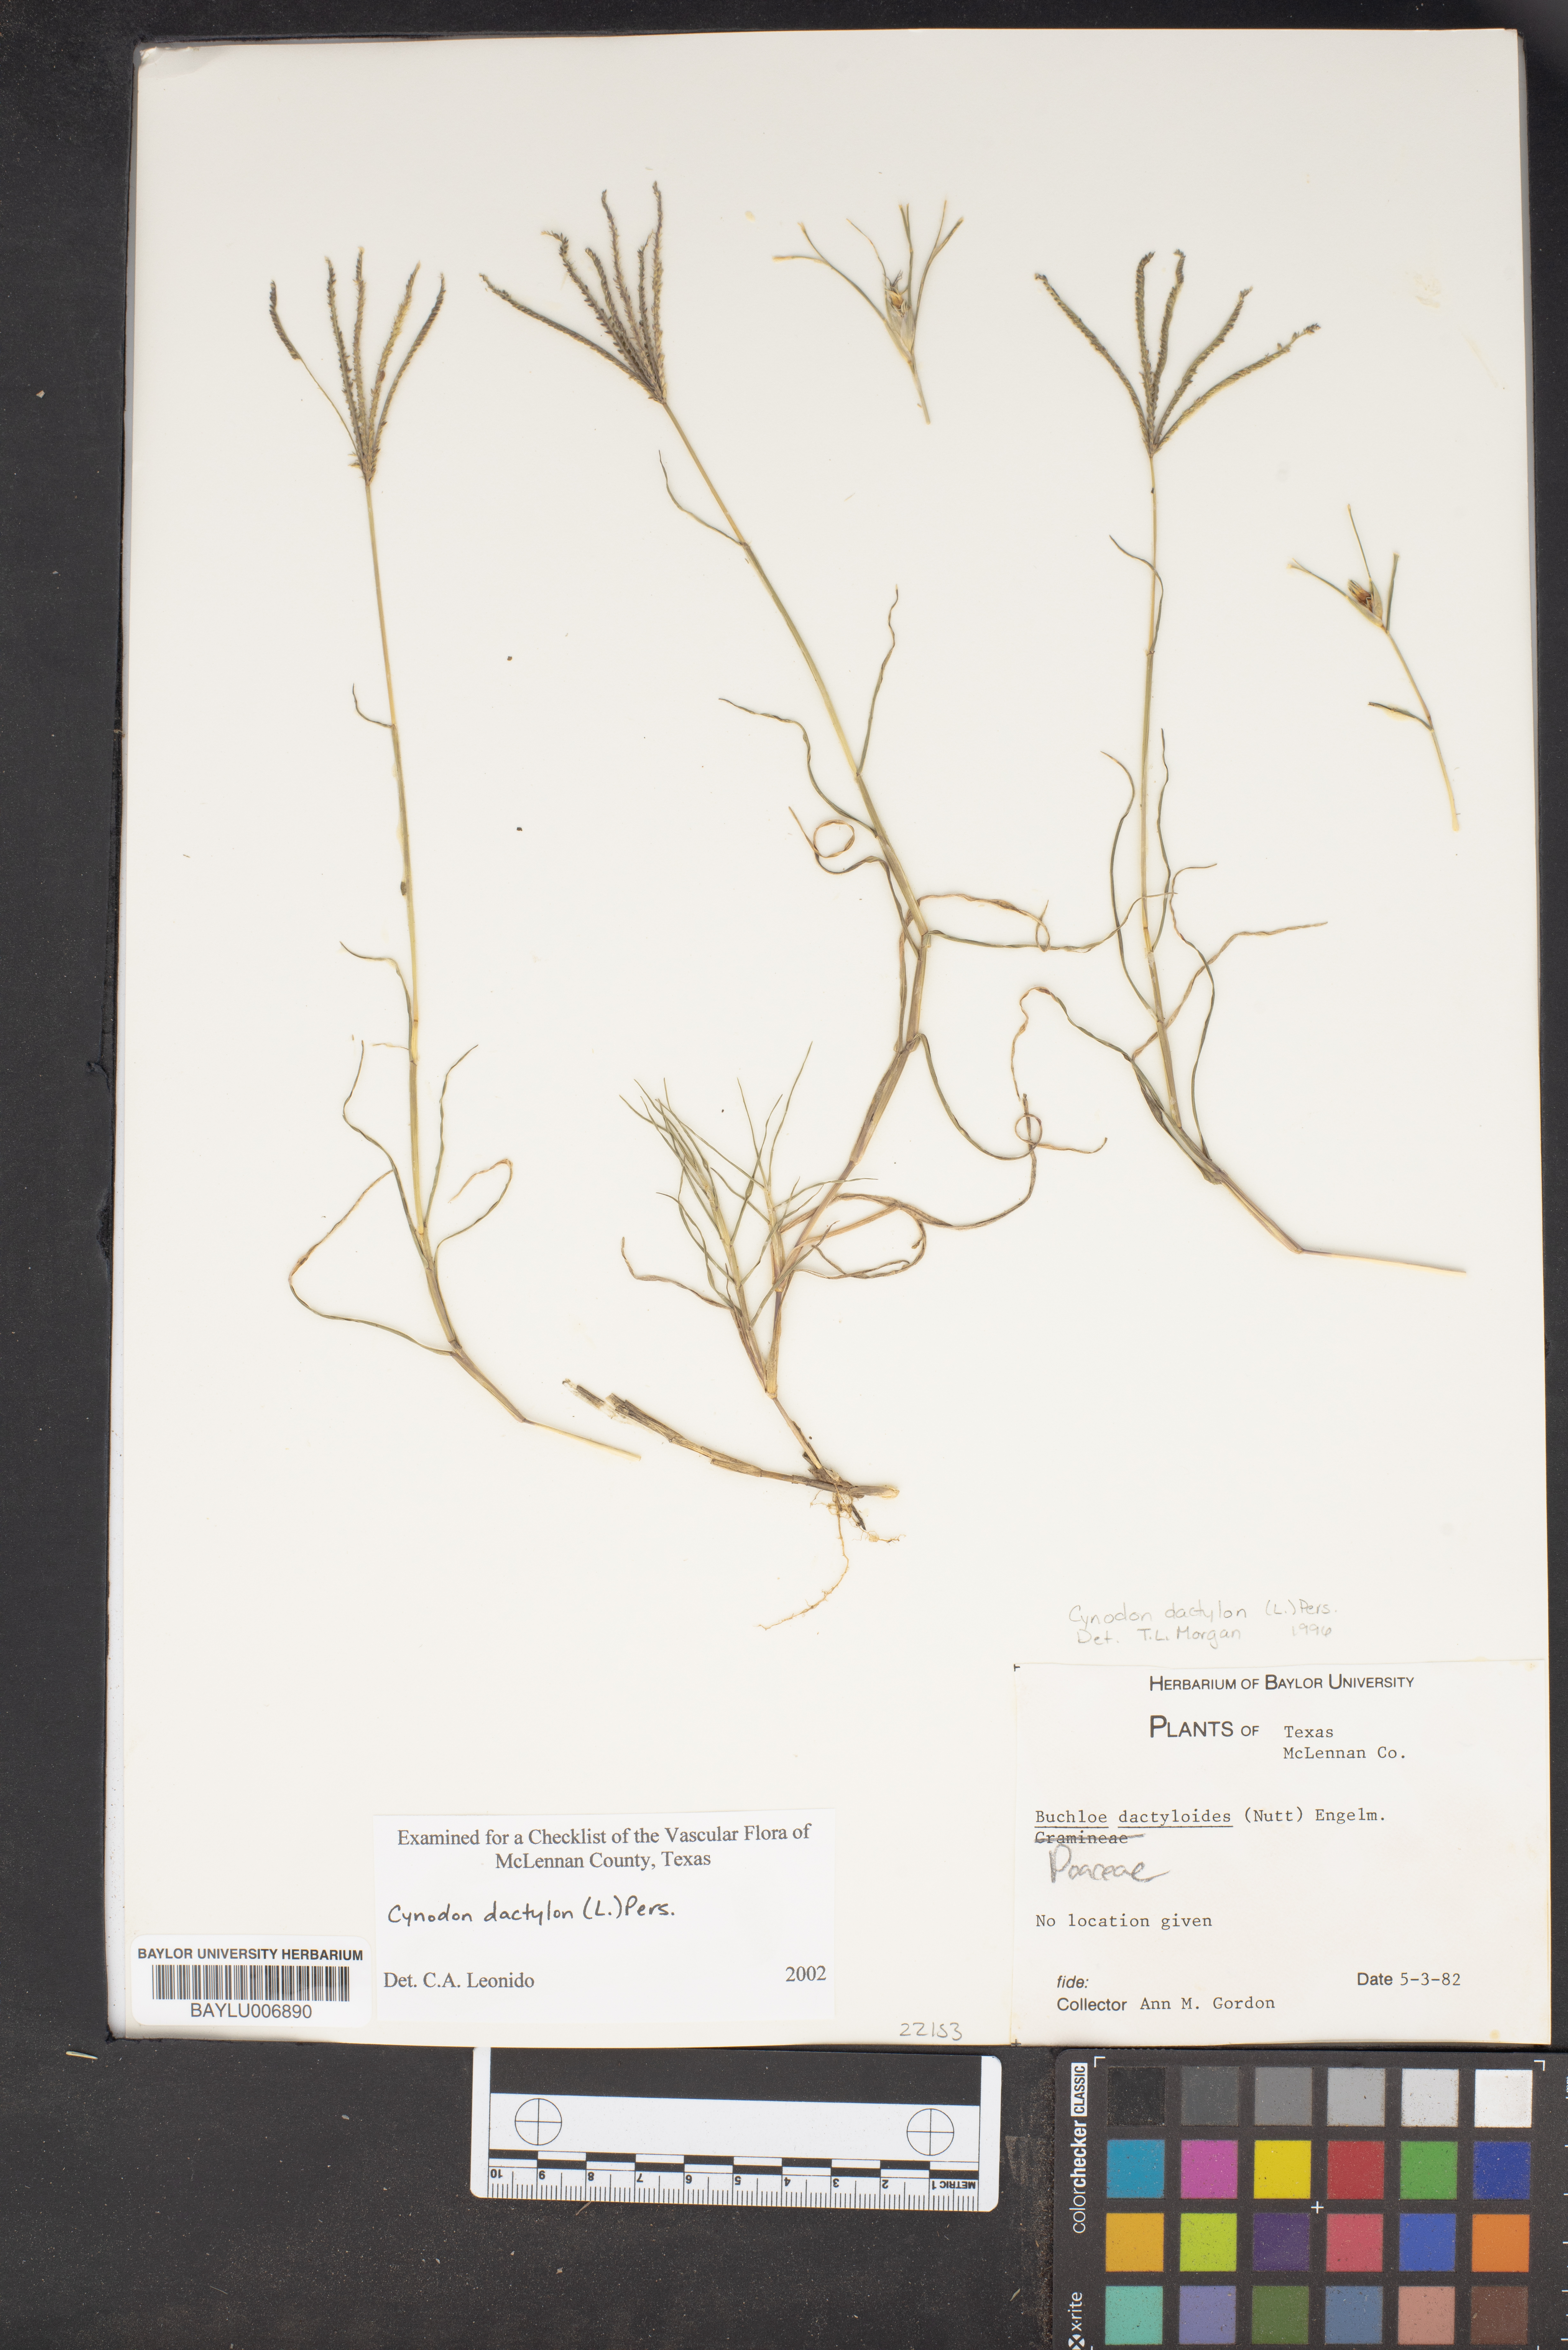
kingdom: Plantae
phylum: Tracheophyta
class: Liliopsida
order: Poales
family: Poaceae
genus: Bouteloua
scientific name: Bouteloua dactyloides
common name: Buffalo grass
